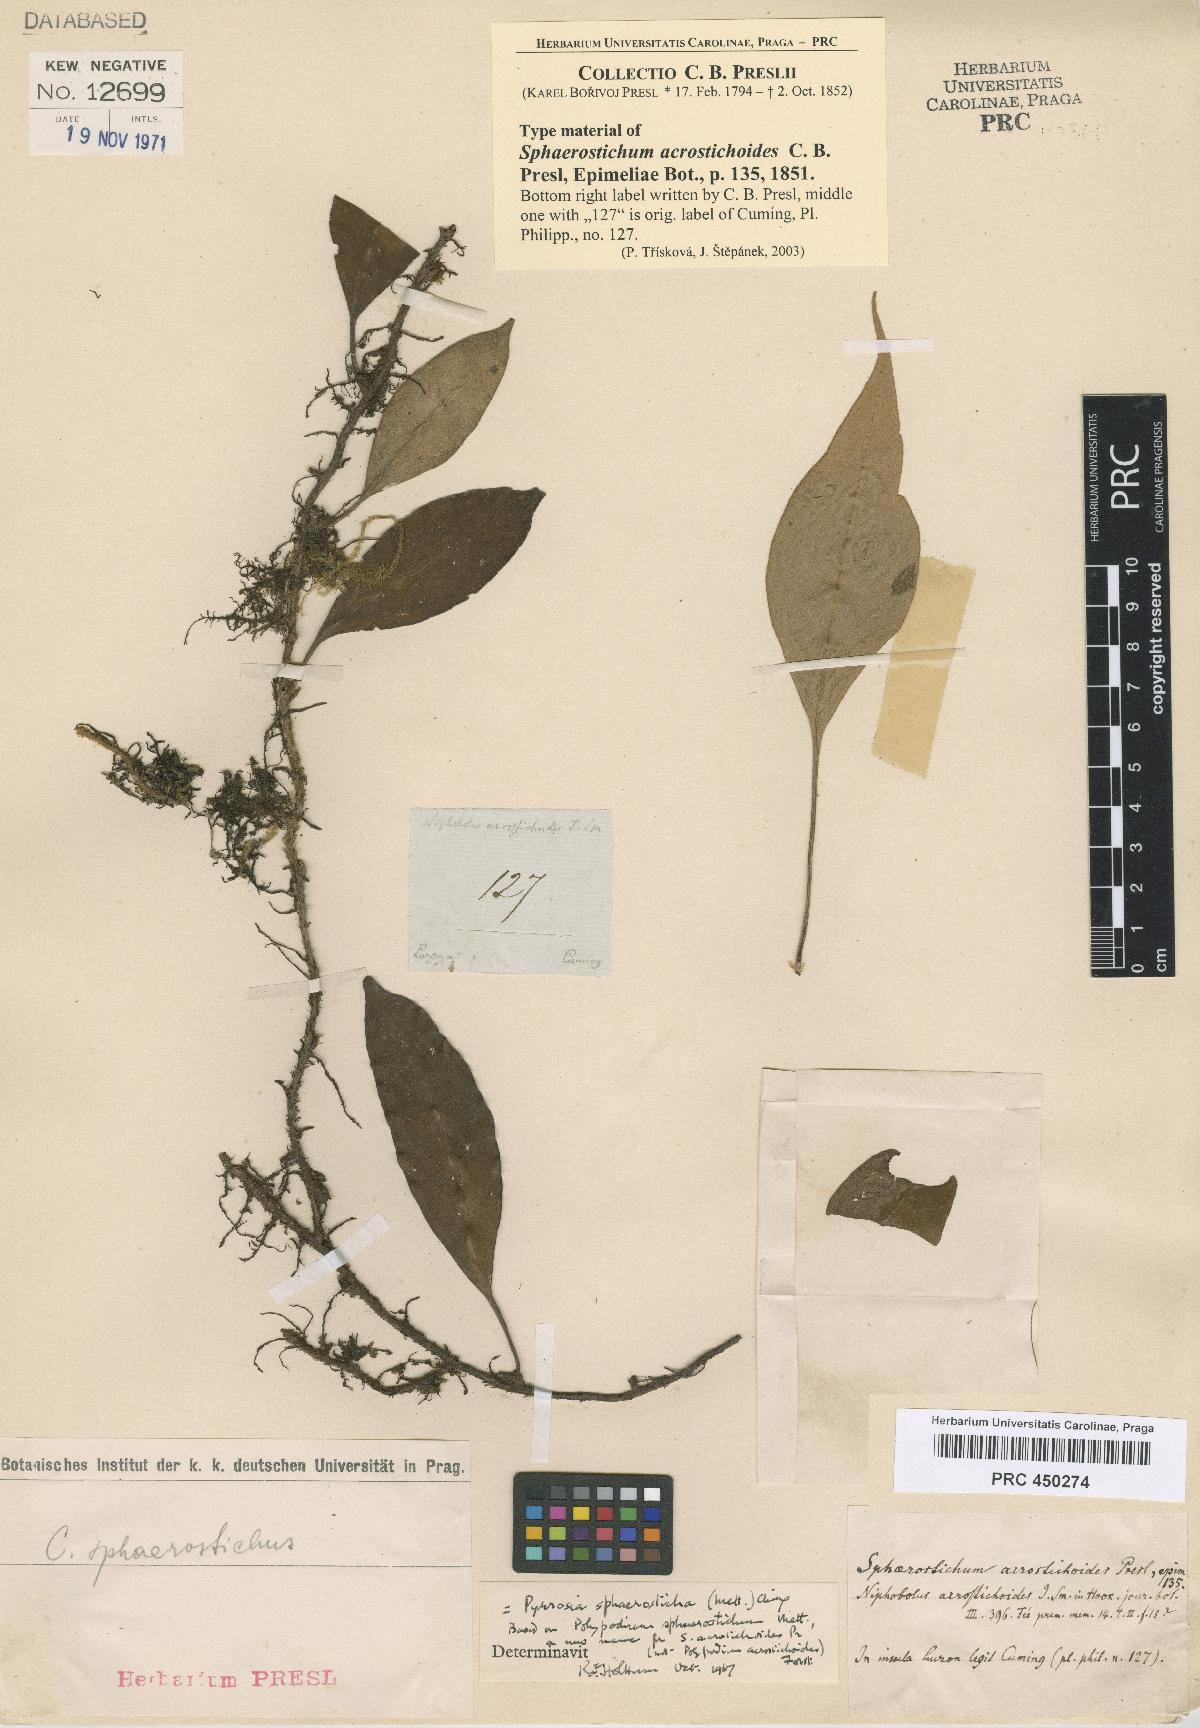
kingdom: Plantae
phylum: Tracheophyta
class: Polypodiopsida
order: Polypodiales
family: Polypodiaceae
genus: Pyrrosia
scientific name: Pyrrosia sphaerosticha
